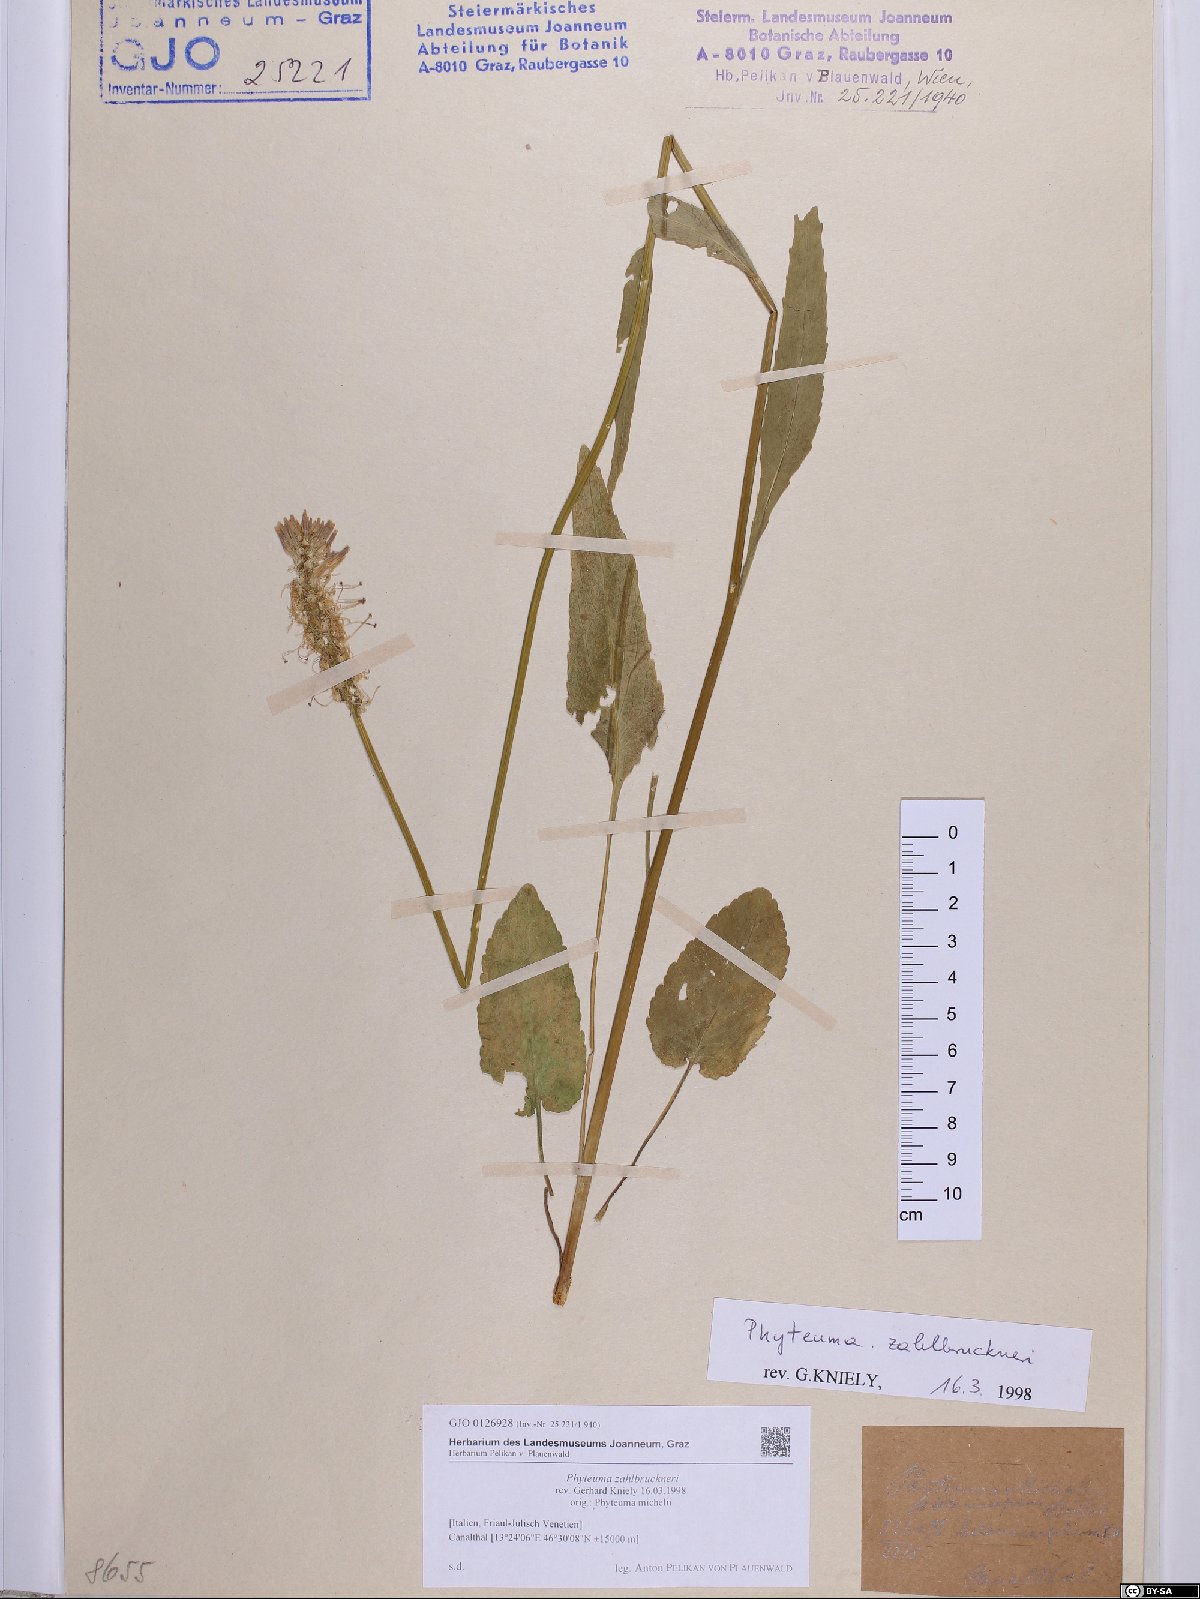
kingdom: Plantae
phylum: Tracheophyta
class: Magnoliopsida
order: Asterales
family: Campanulaceae
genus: Phyteuma
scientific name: Phyteuma persicifolium
